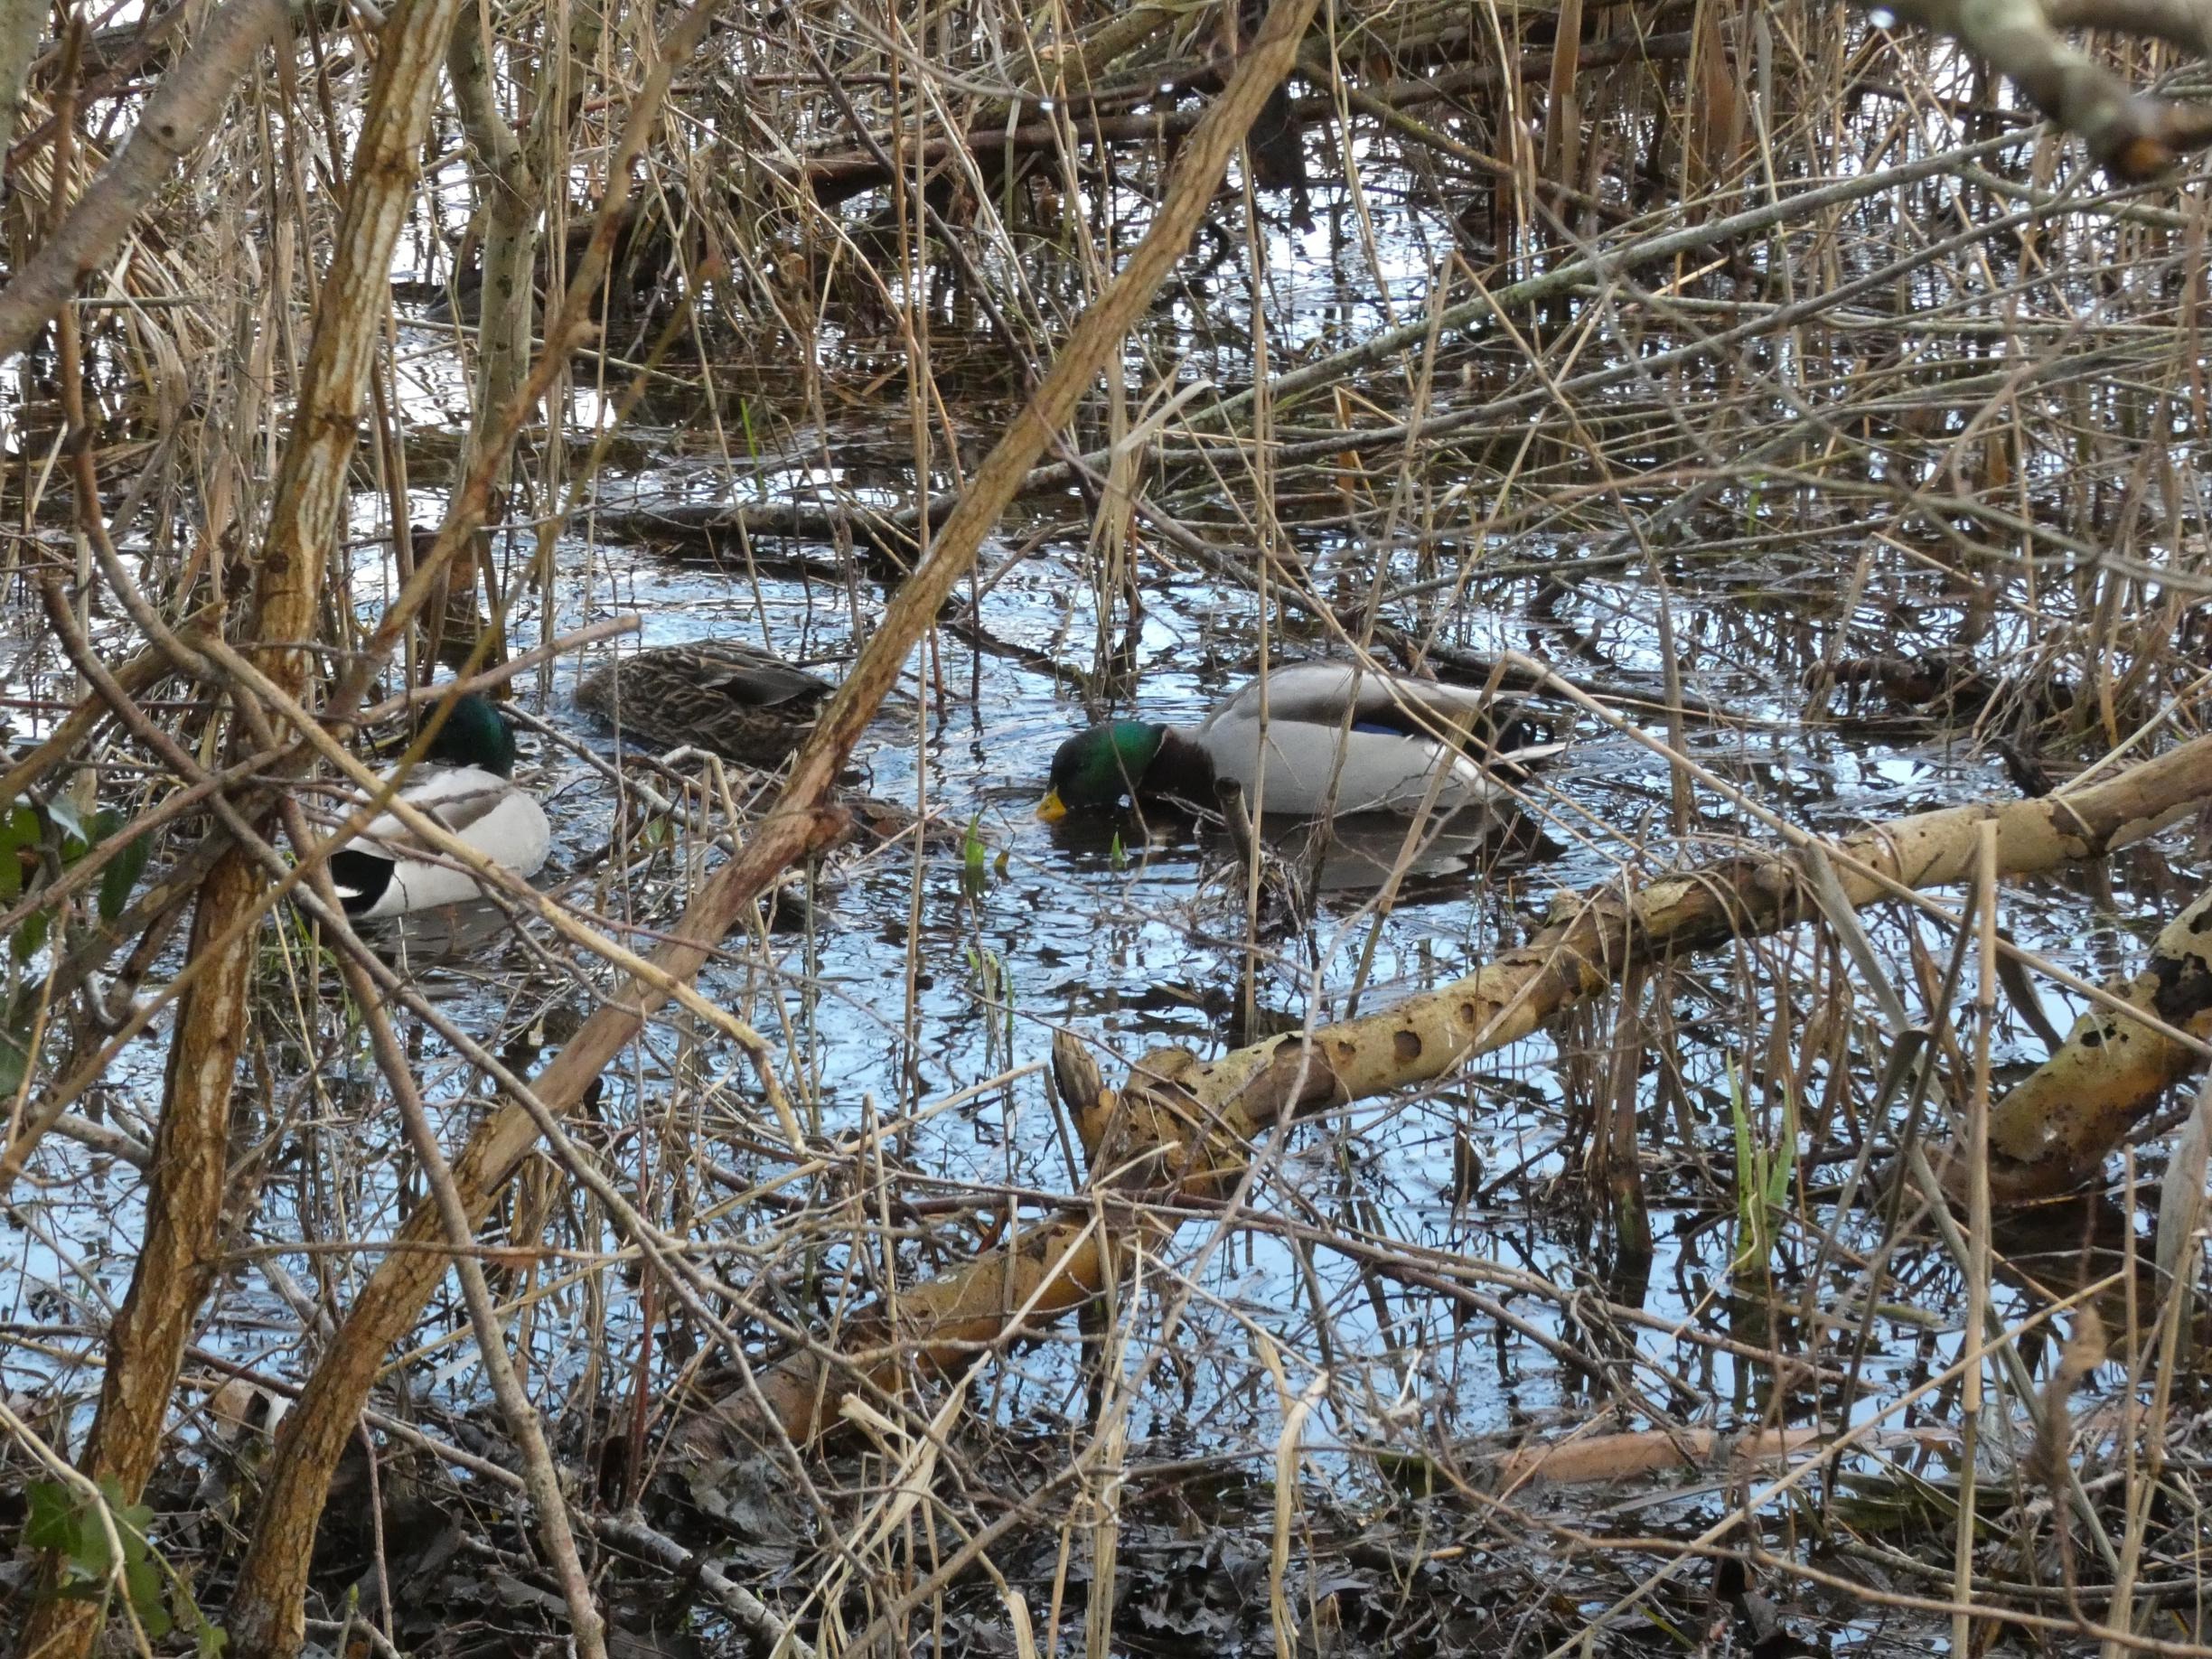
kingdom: Animalia
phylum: Chordata
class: Aves
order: Anseriformes
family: Anatidae
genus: Anas
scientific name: Anas platyrhynchos
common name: Gråand
